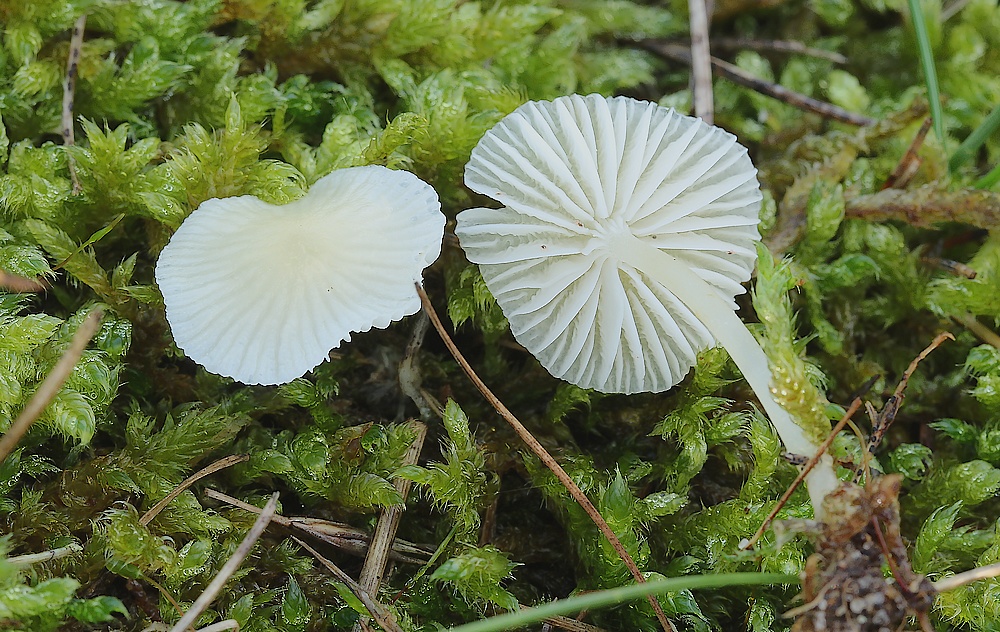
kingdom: Fungi
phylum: Basidiomycota
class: Agaricomycetes
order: Agaricales
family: Mycenaceae
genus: Atheniella
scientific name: Atheniella flavoalba
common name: gulhvid huesvamp
